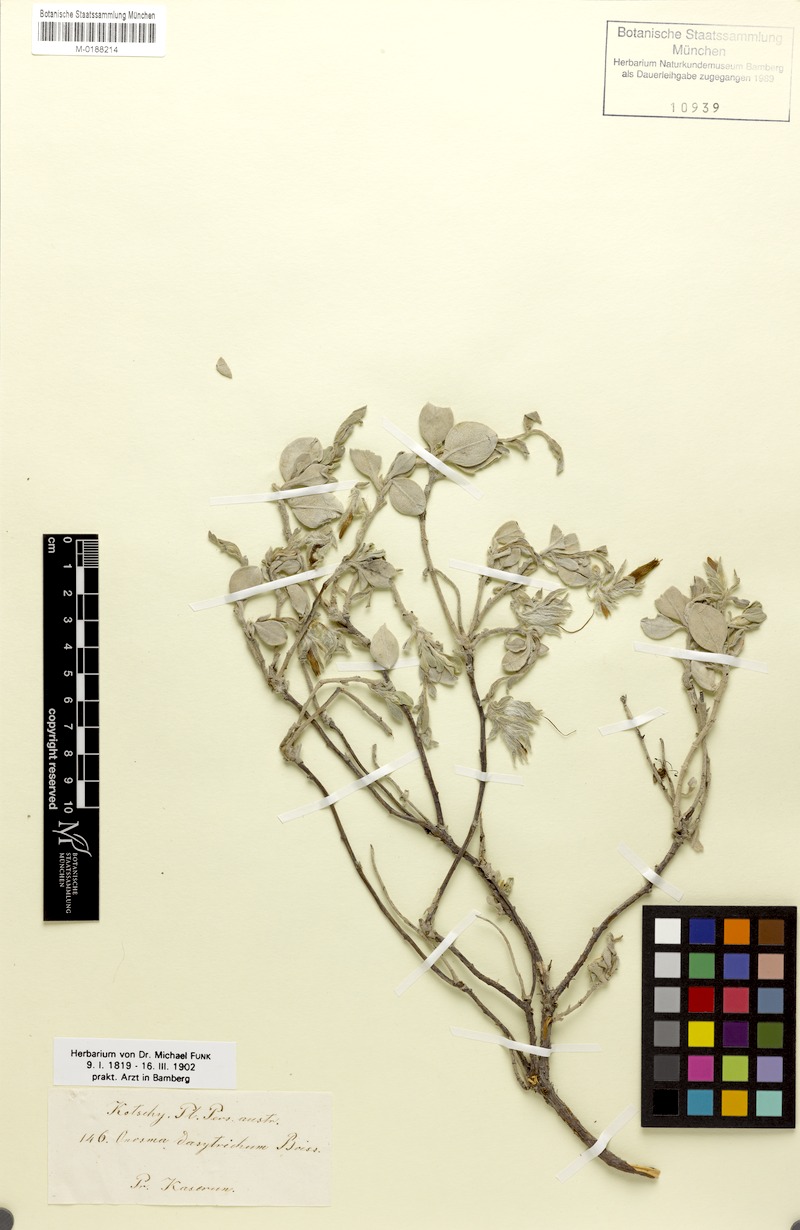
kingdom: Plantae
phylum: Tracheophyta
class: Magnoliopsida
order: Boraginales
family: Boraginaceae
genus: Onosma
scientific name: Onosma dasytricha
